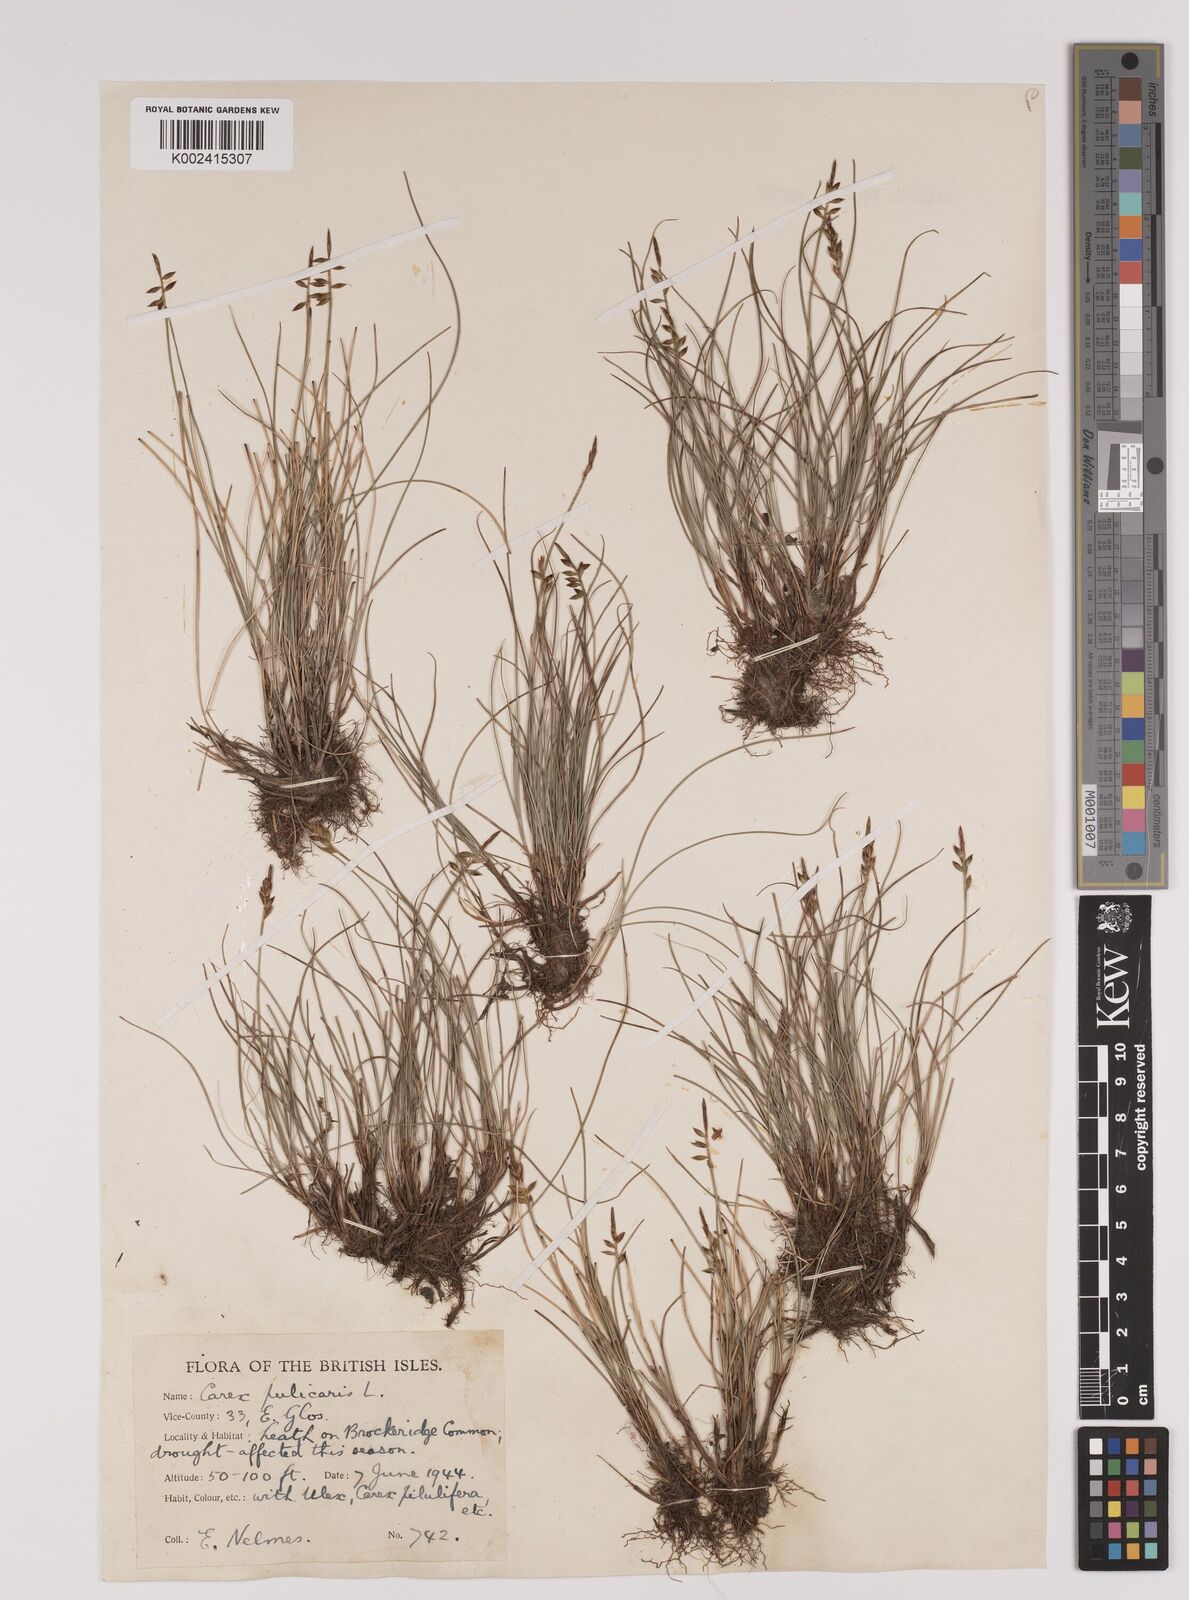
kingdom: Plantae
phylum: Tracheophyta
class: Liliopsida
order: Poales
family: Cyperaceae
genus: Carex
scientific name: Carex pulicaris
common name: Flea sedge
